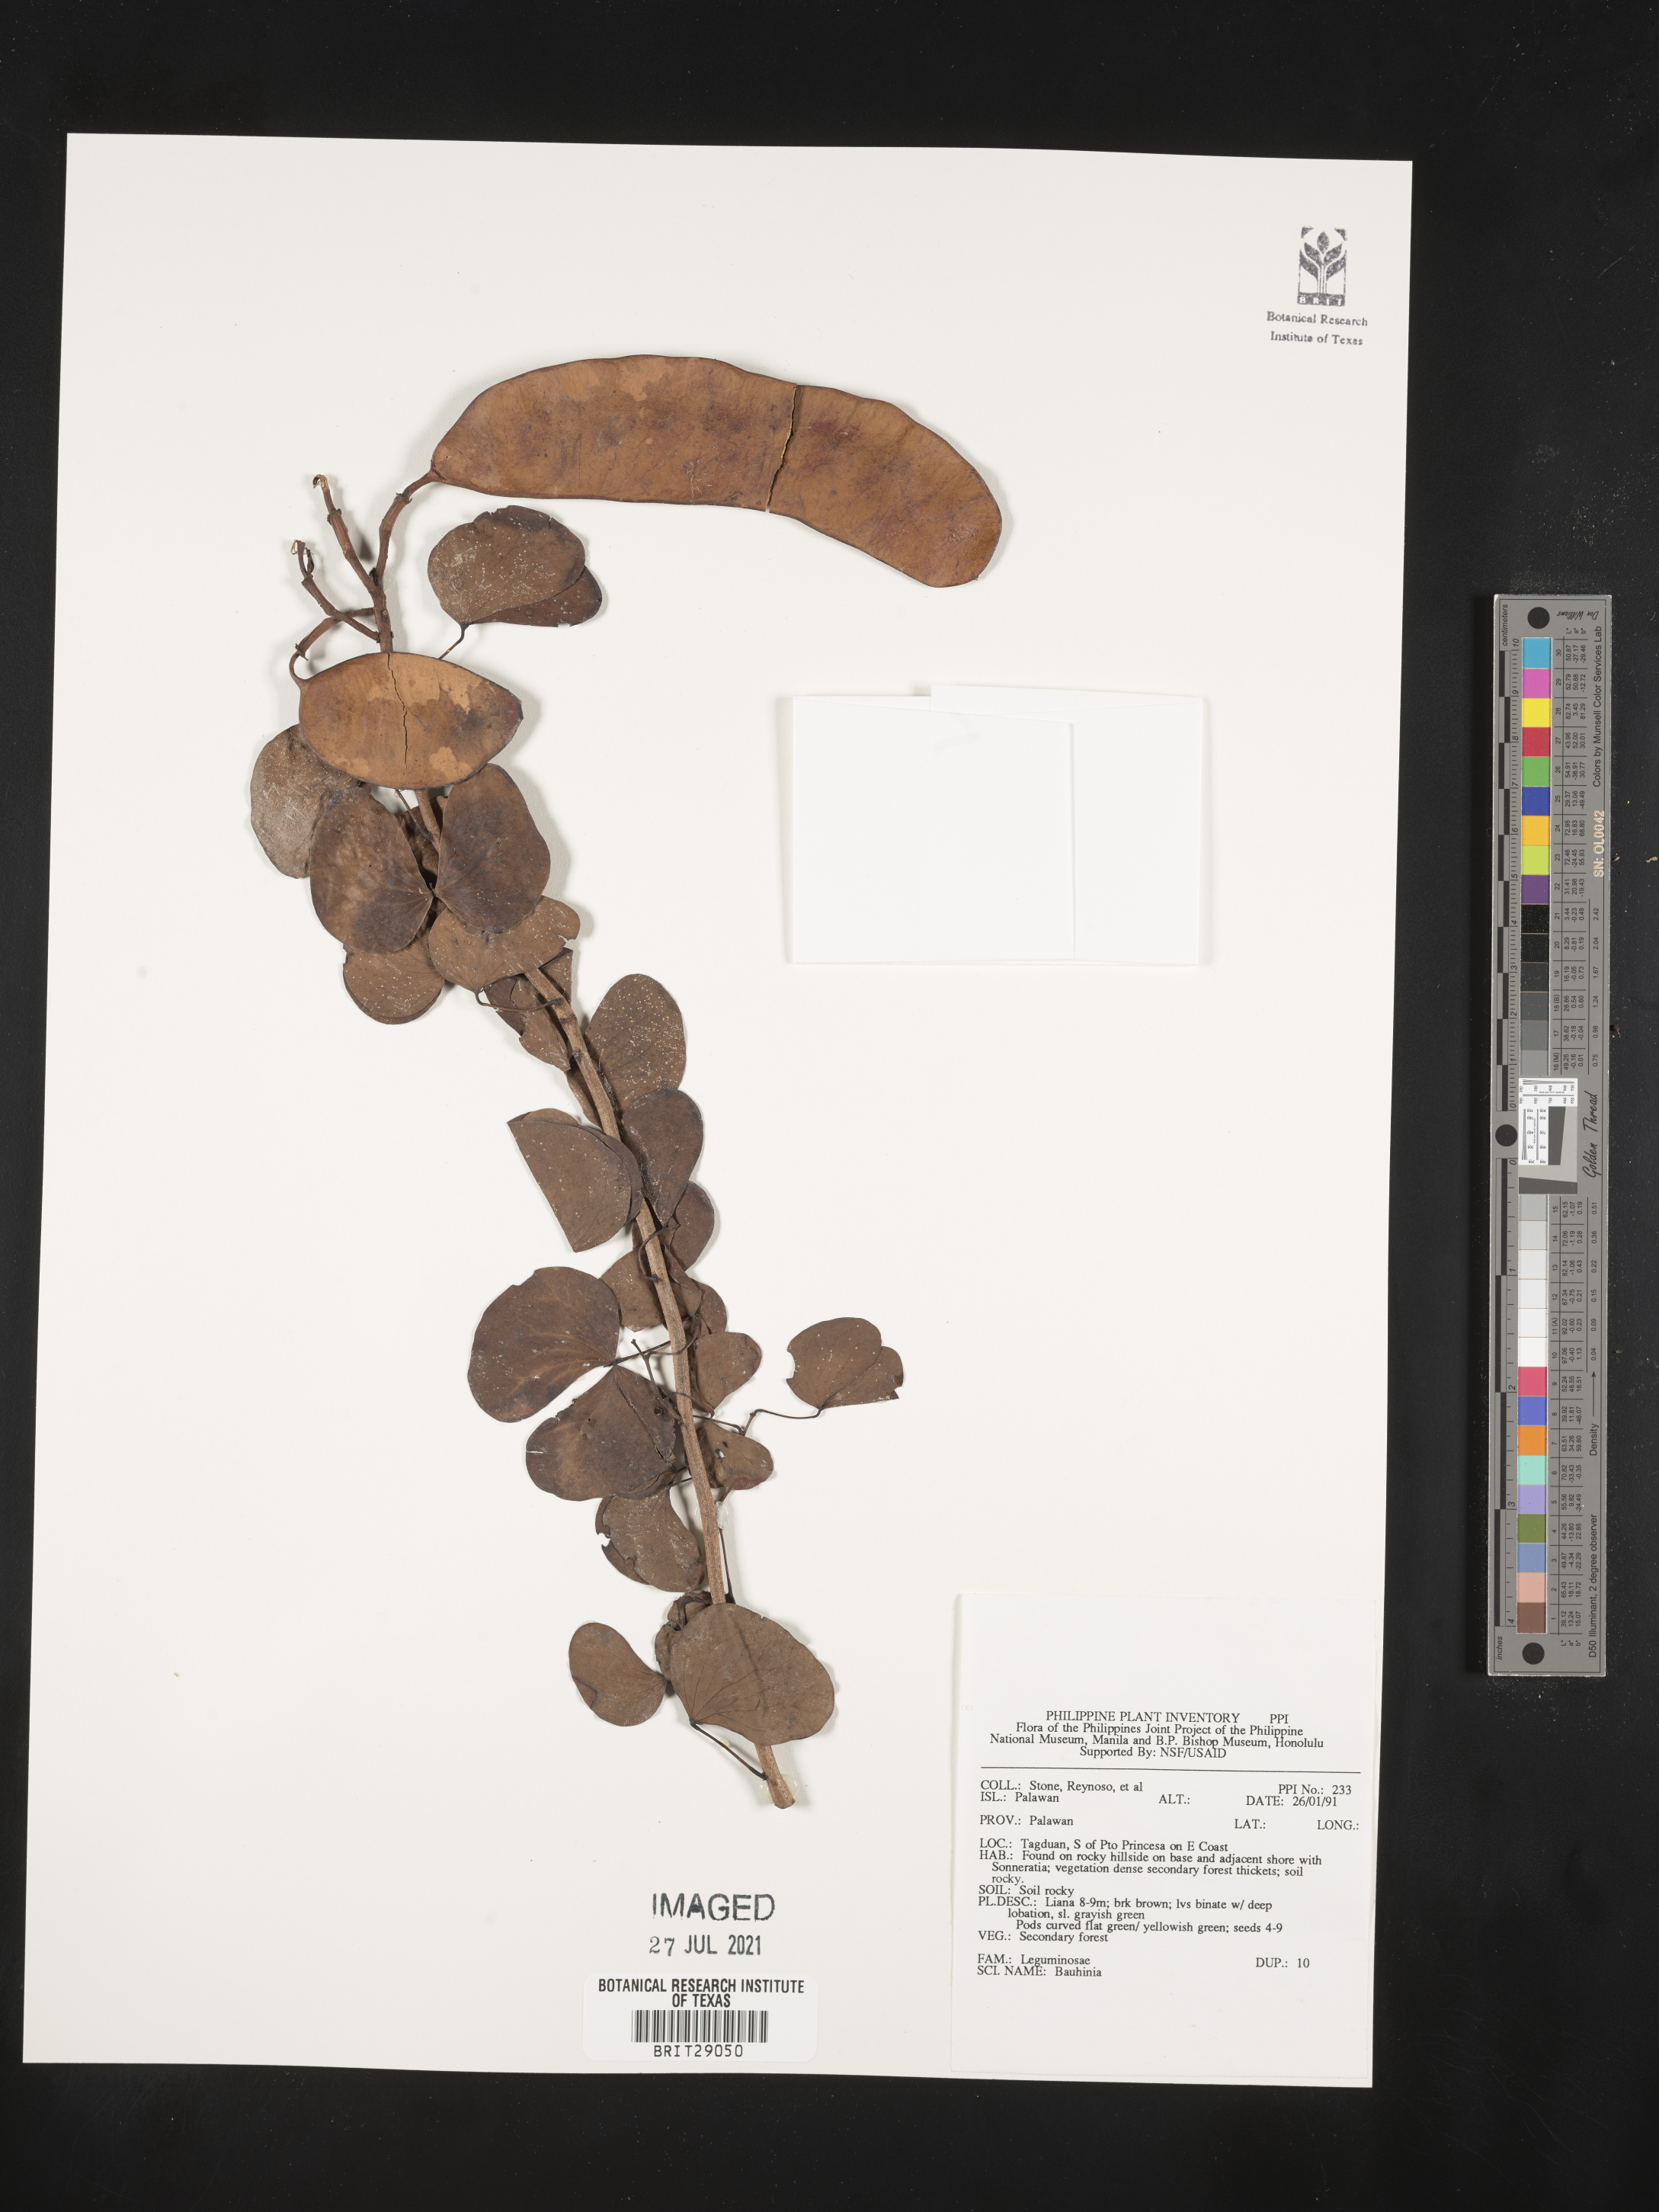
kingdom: Plantae
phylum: Tracheophyta
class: Magnoliopsida
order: Fabales
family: Fabaceae
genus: Bauhinia
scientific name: Bauhinia
